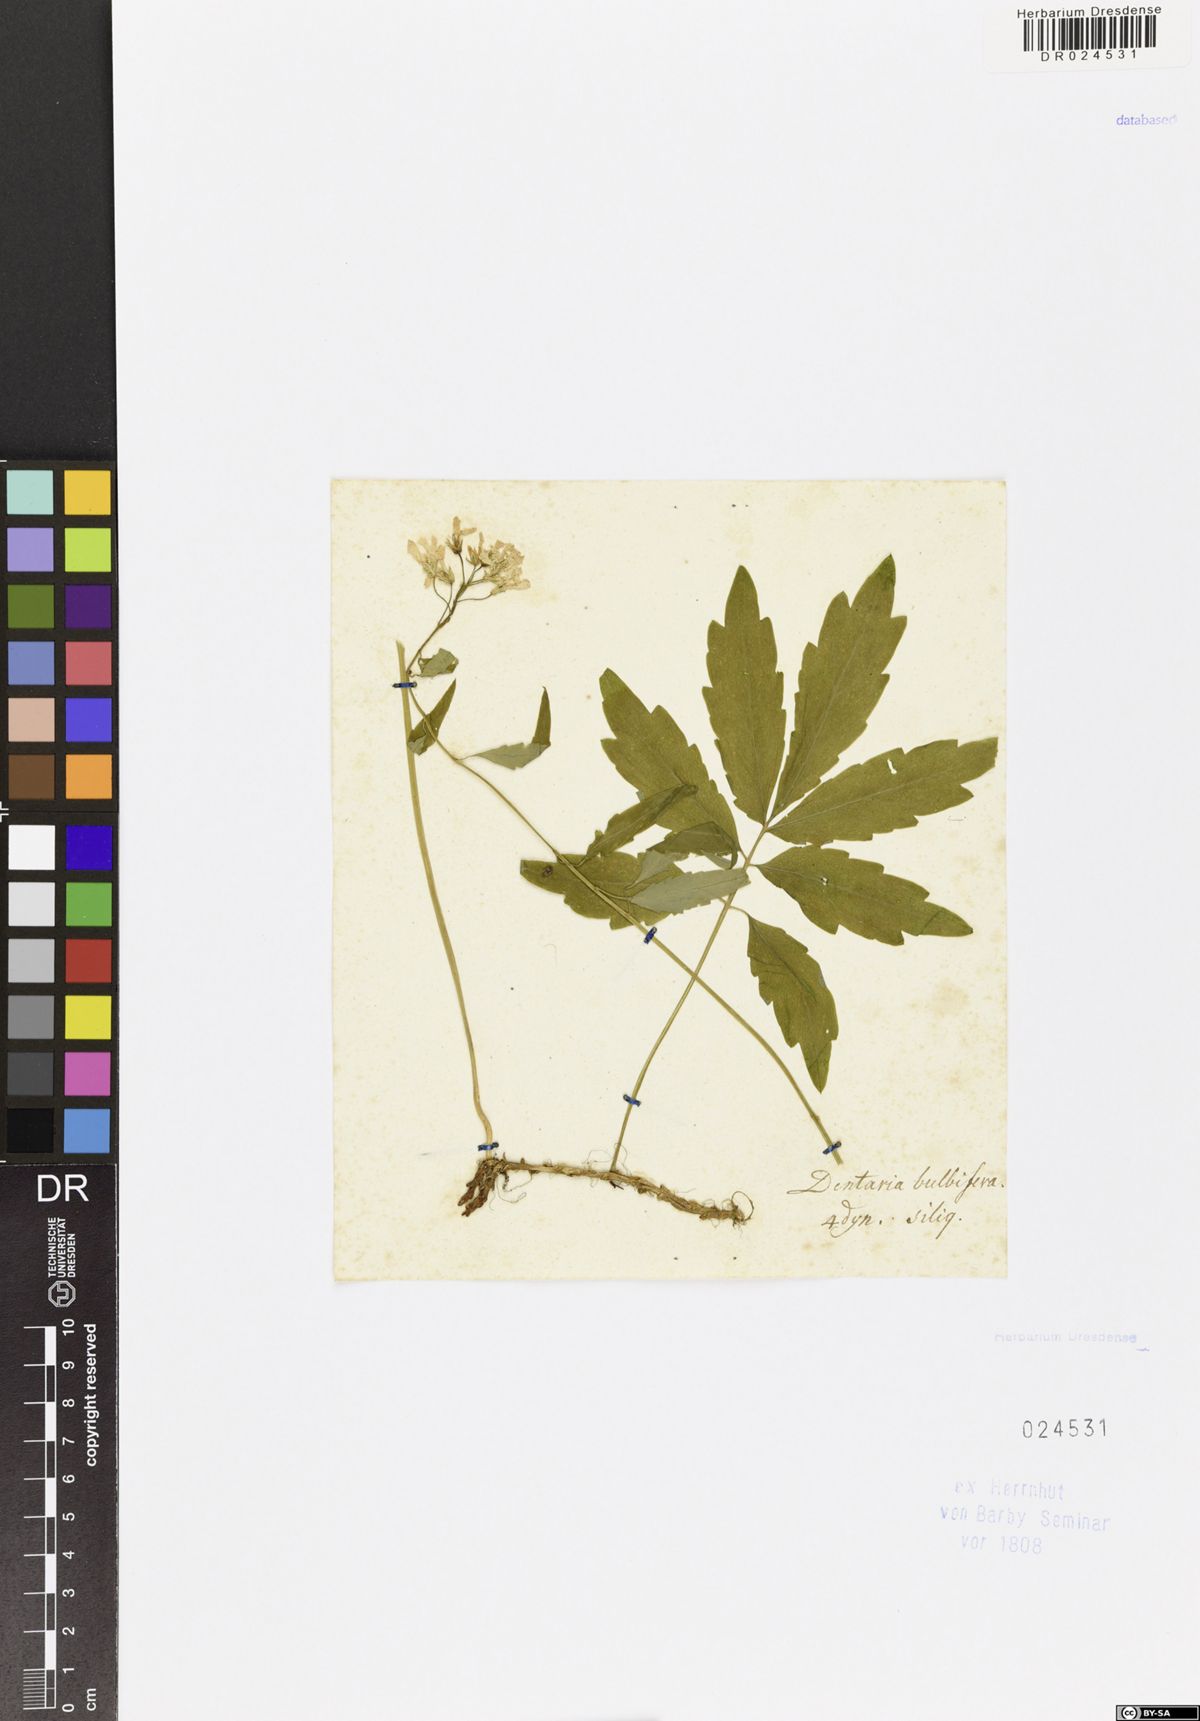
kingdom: Plantae
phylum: Tracheophyta
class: Magnoliopsida
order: Brassicales
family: Brassicaceae
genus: Cardamine
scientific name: Cardamine bulbifera
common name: Coralroot bittercress
